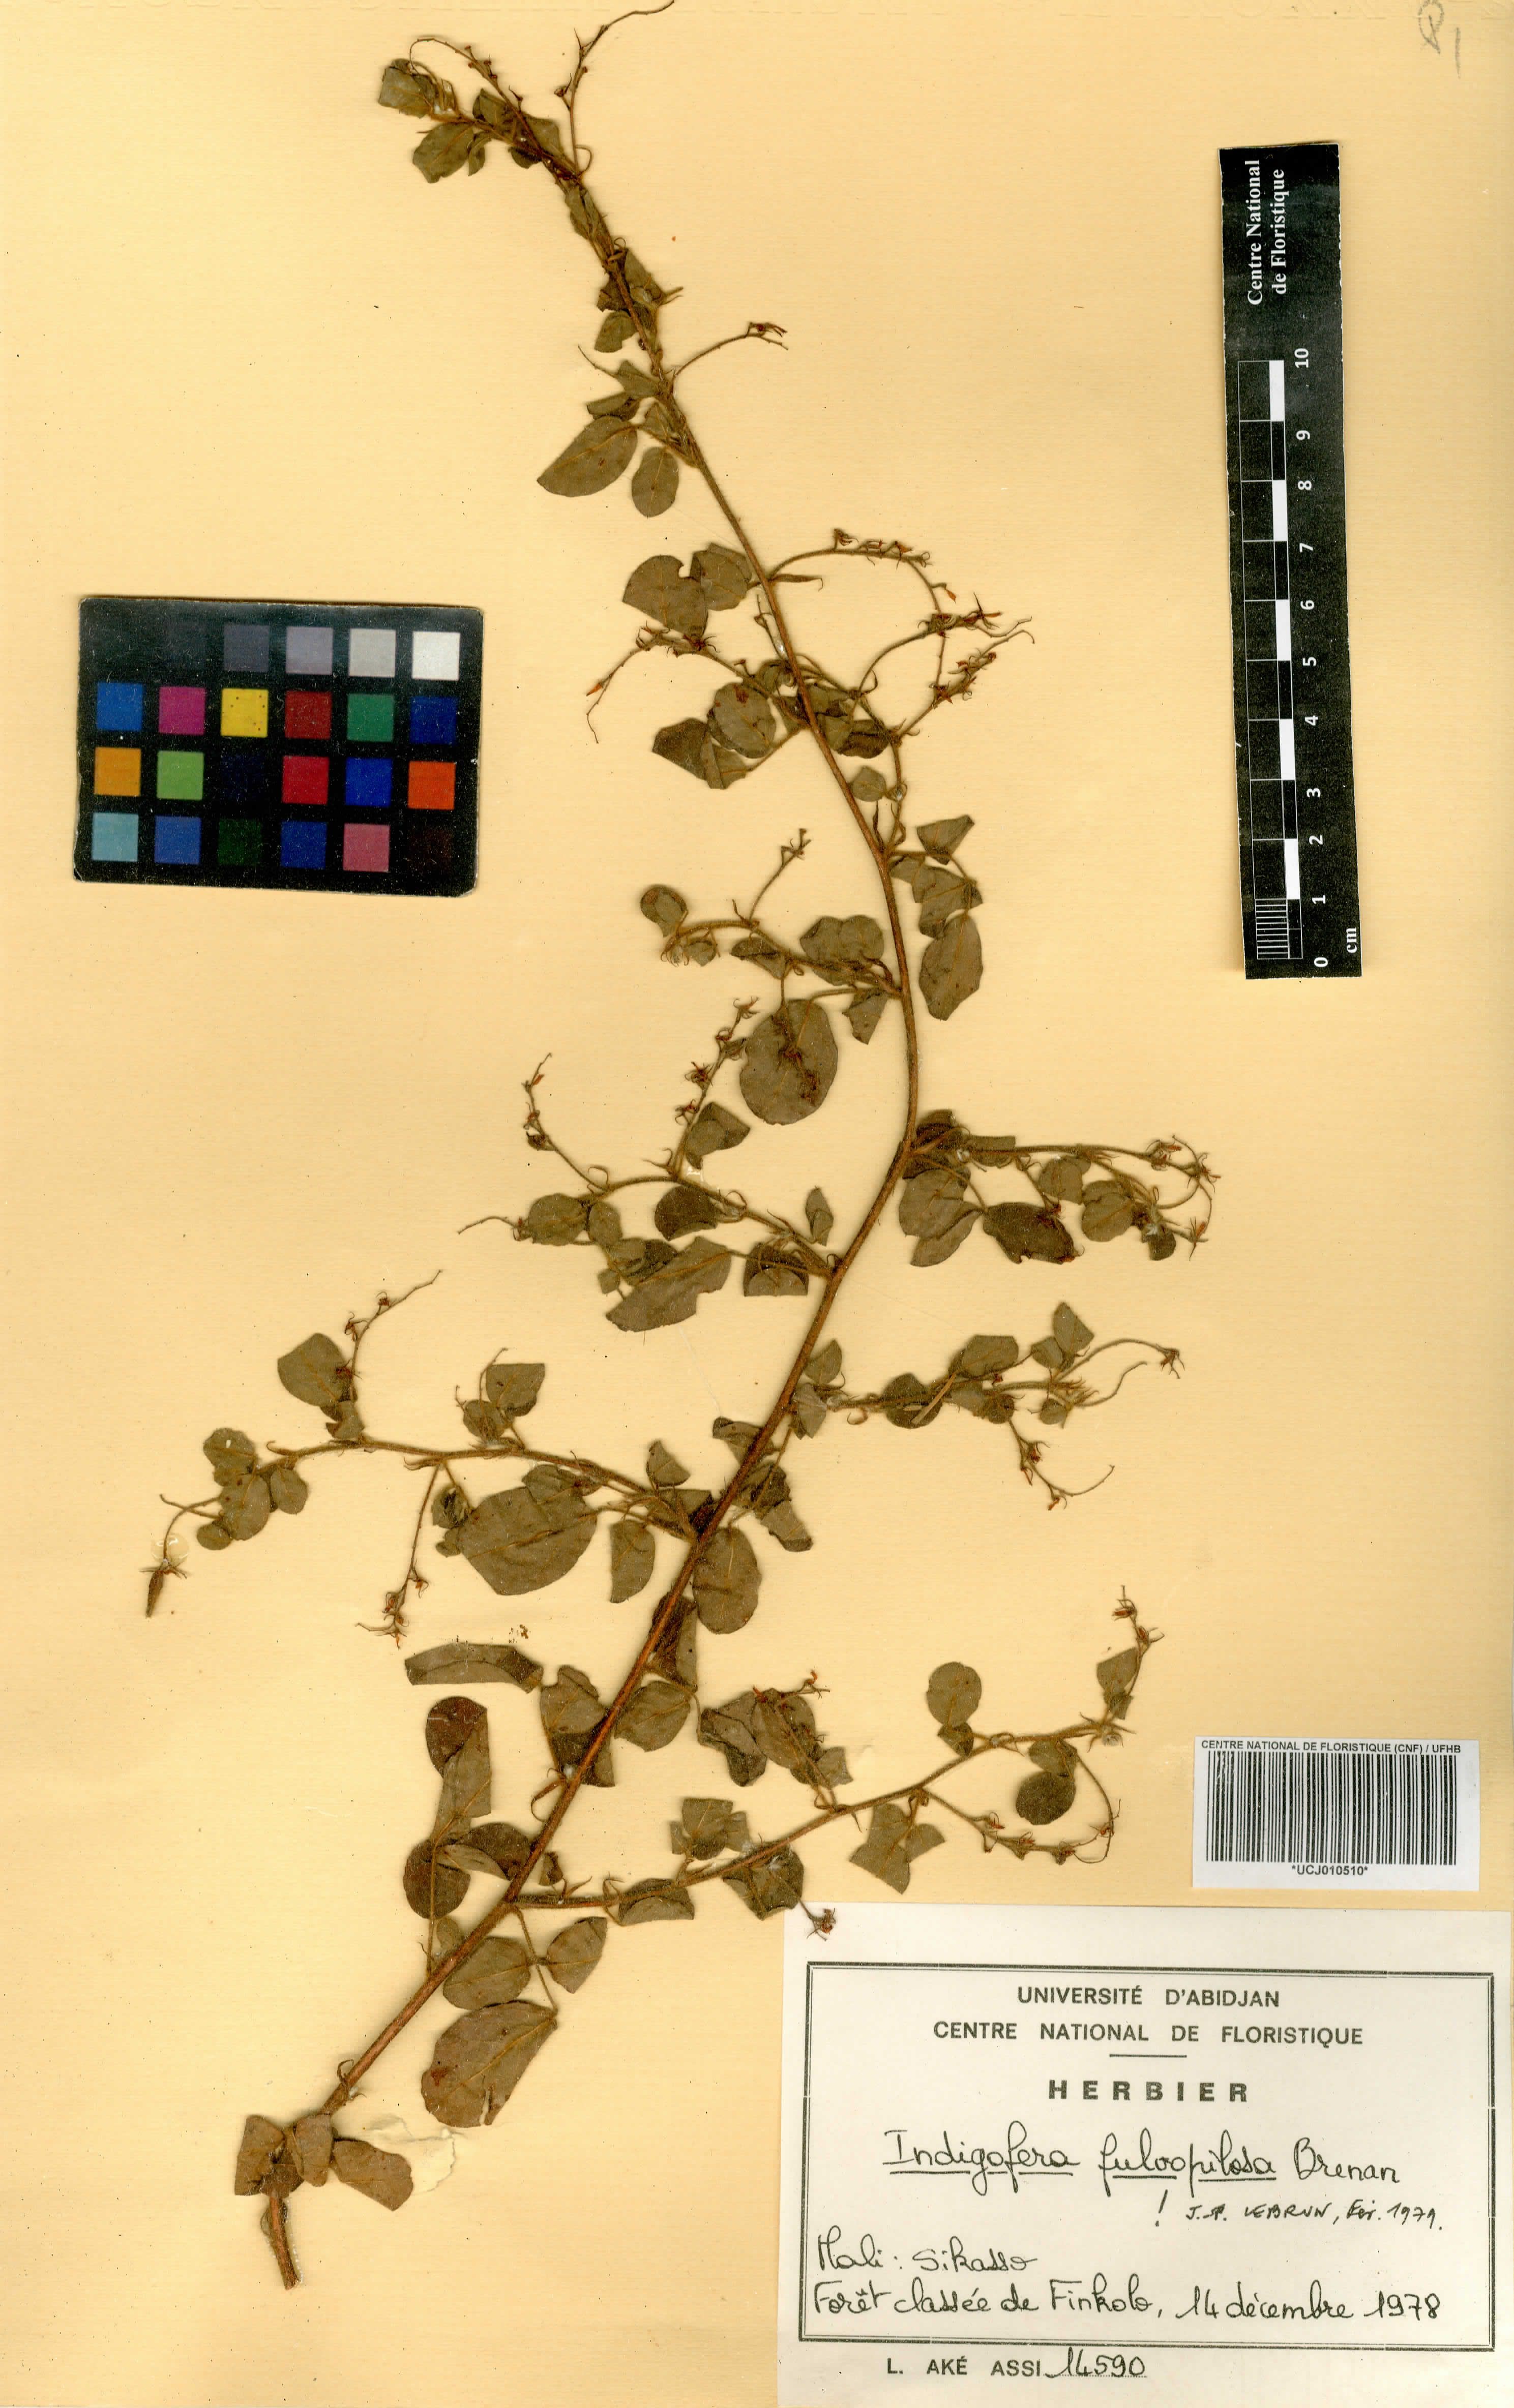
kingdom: Plantae
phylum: Tracheophyta
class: Magnoliopsida
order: Fabales
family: Fabaceae
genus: Indigofera
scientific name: Indigofera fulvopilosa
